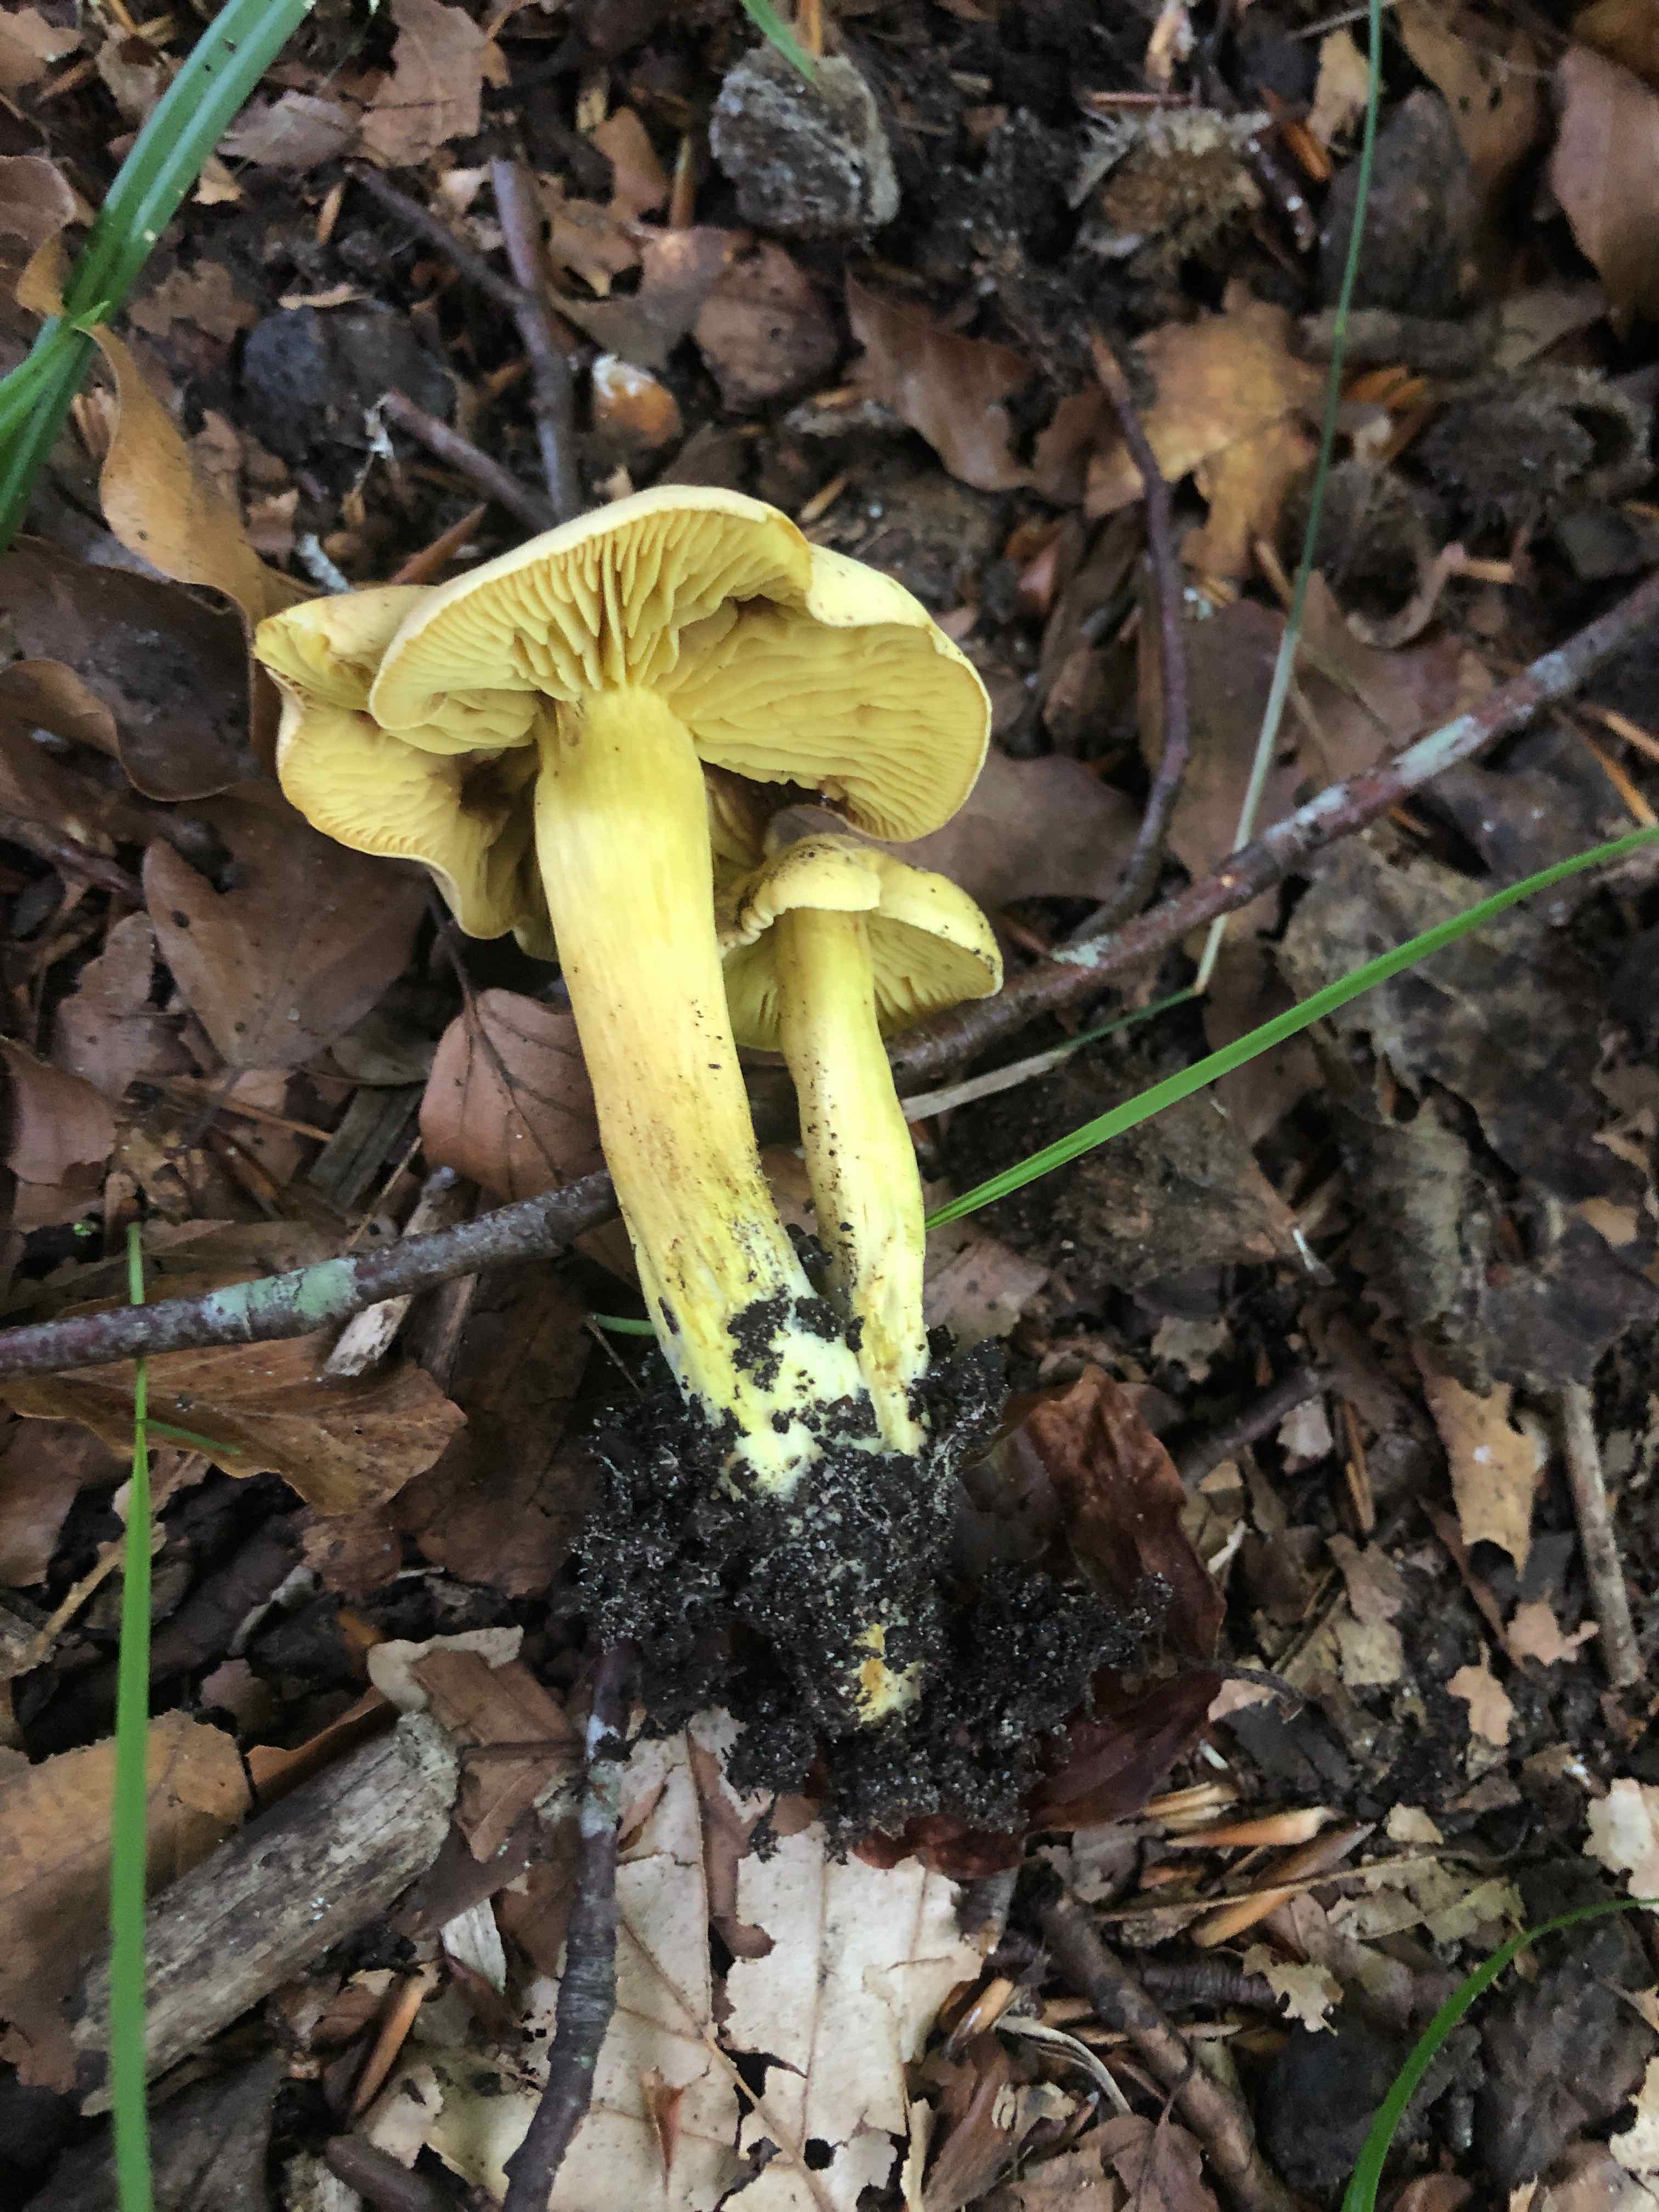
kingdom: Fungi
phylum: Basidiomycota
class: Agaricomycetes
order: Agaricales
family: Tricholomataceae
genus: Tricholoma
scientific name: Tricholoma sulphureum
